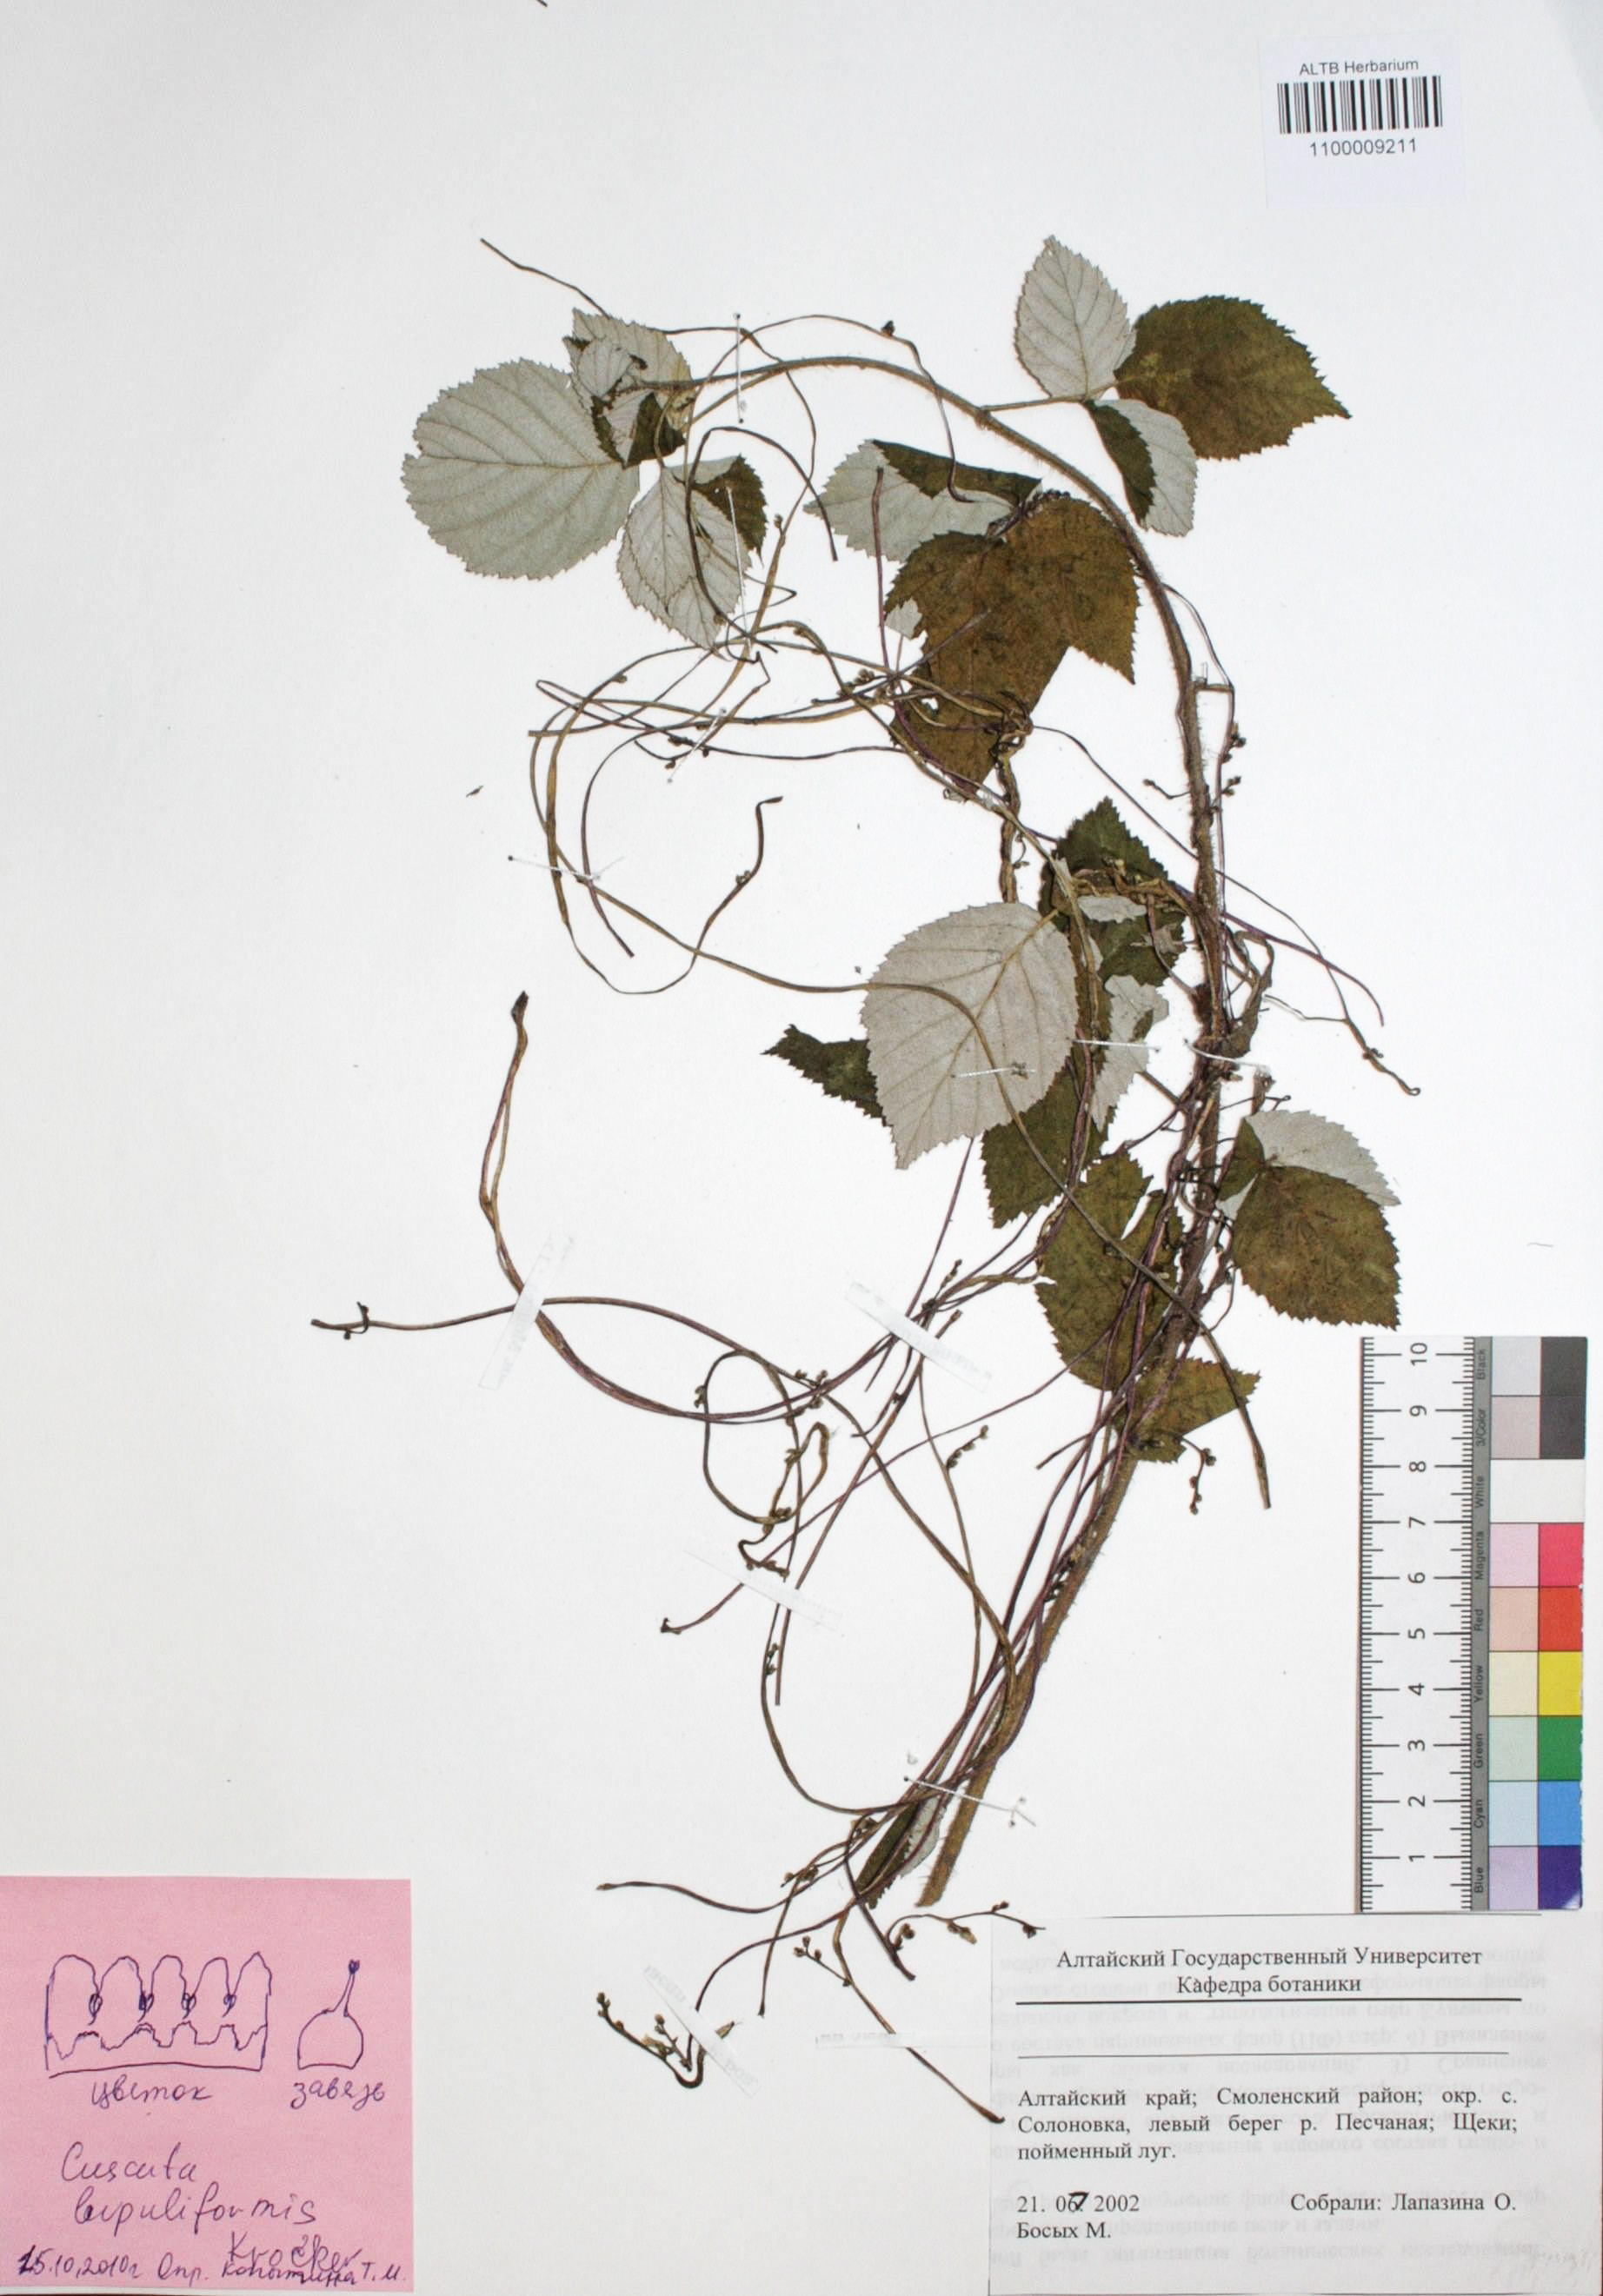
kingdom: Plantae
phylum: Tracheophyta
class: Magnoliopsida
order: Solanales
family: Convolvulaceae
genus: Cuscuta
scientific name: Cuscuta lupuliformis
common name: Hop dodder
